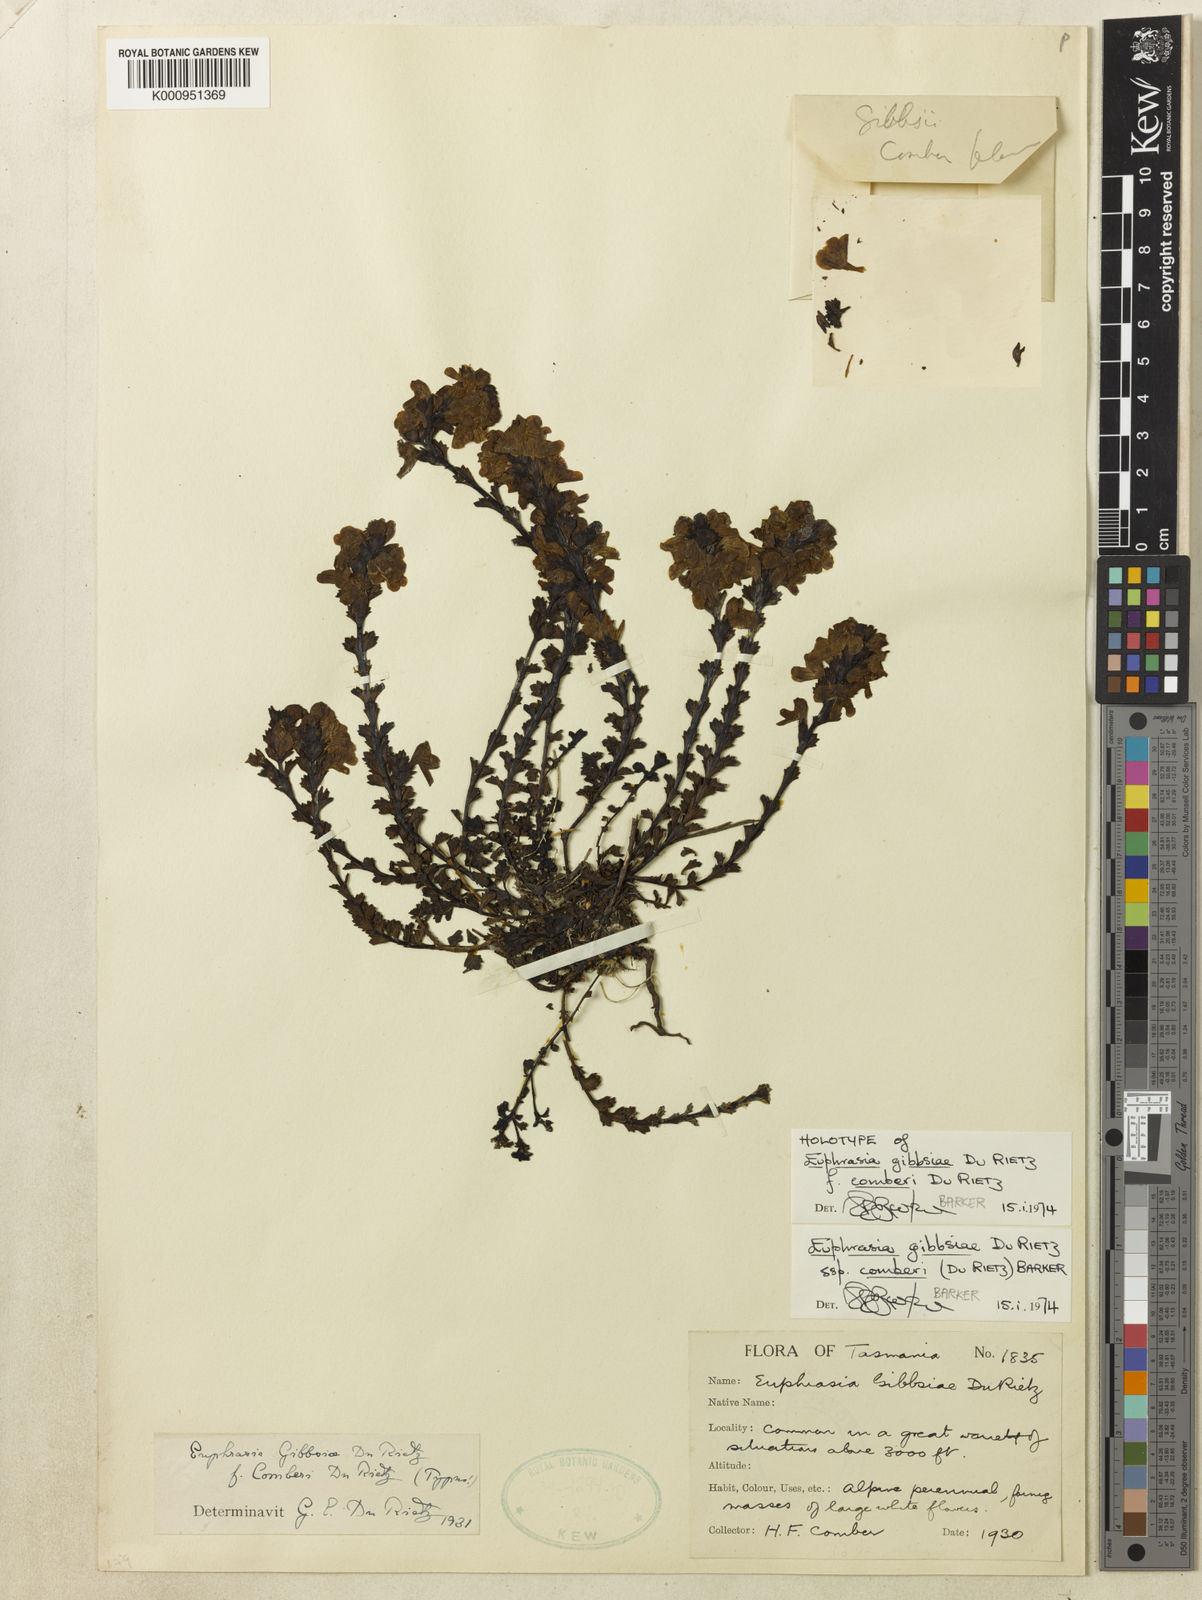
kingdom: Plantae
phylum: Tracheophyta
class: Magnoliopsida
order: Lamiales
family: Orobanchaceae
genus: Euphrasia
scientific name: Euphrasia gibbsiae
